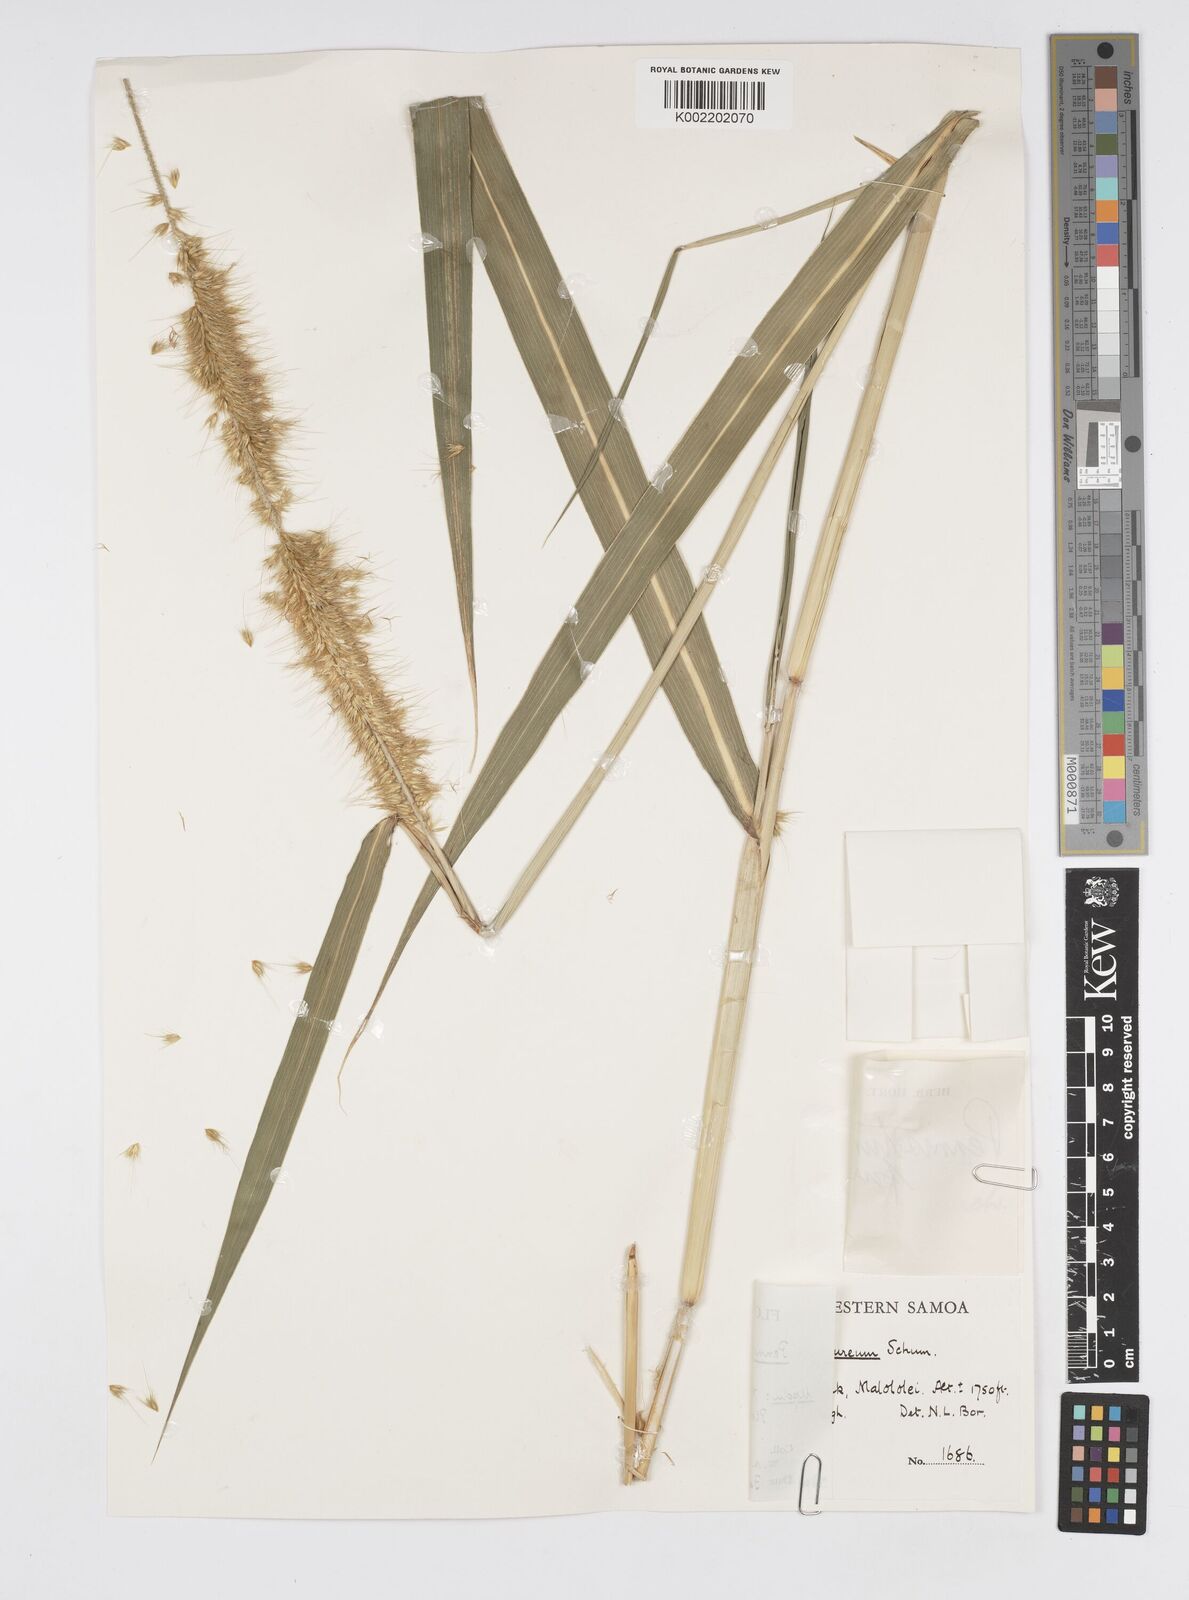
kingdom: Plantae
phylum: Tracheophyta
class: Liliopsida
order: Poales
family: Poaceae
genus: Cenchrus
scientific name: Cenchrus purpureus
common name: Elephant grass
